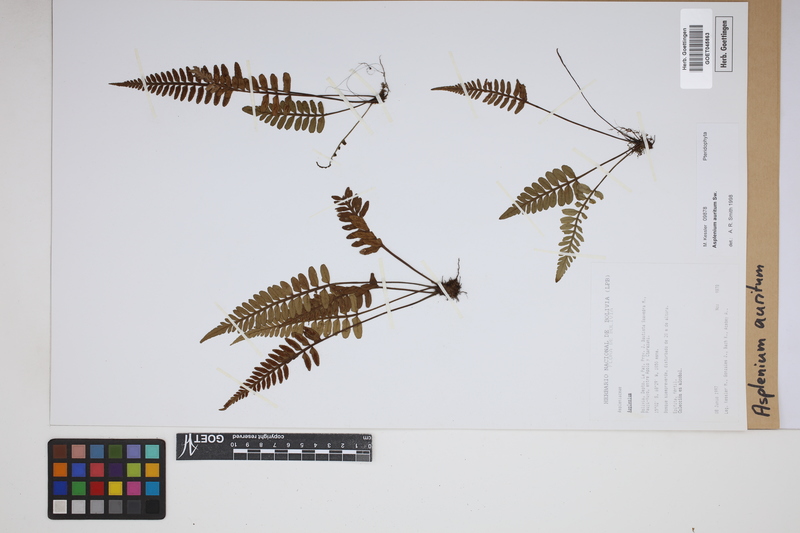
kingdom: Plantae
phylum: Tracheophyta
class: Polypodiopsida
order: Polypodiales
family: Aspleniaceae
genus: Asplenium
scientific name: Asplenium auritum
